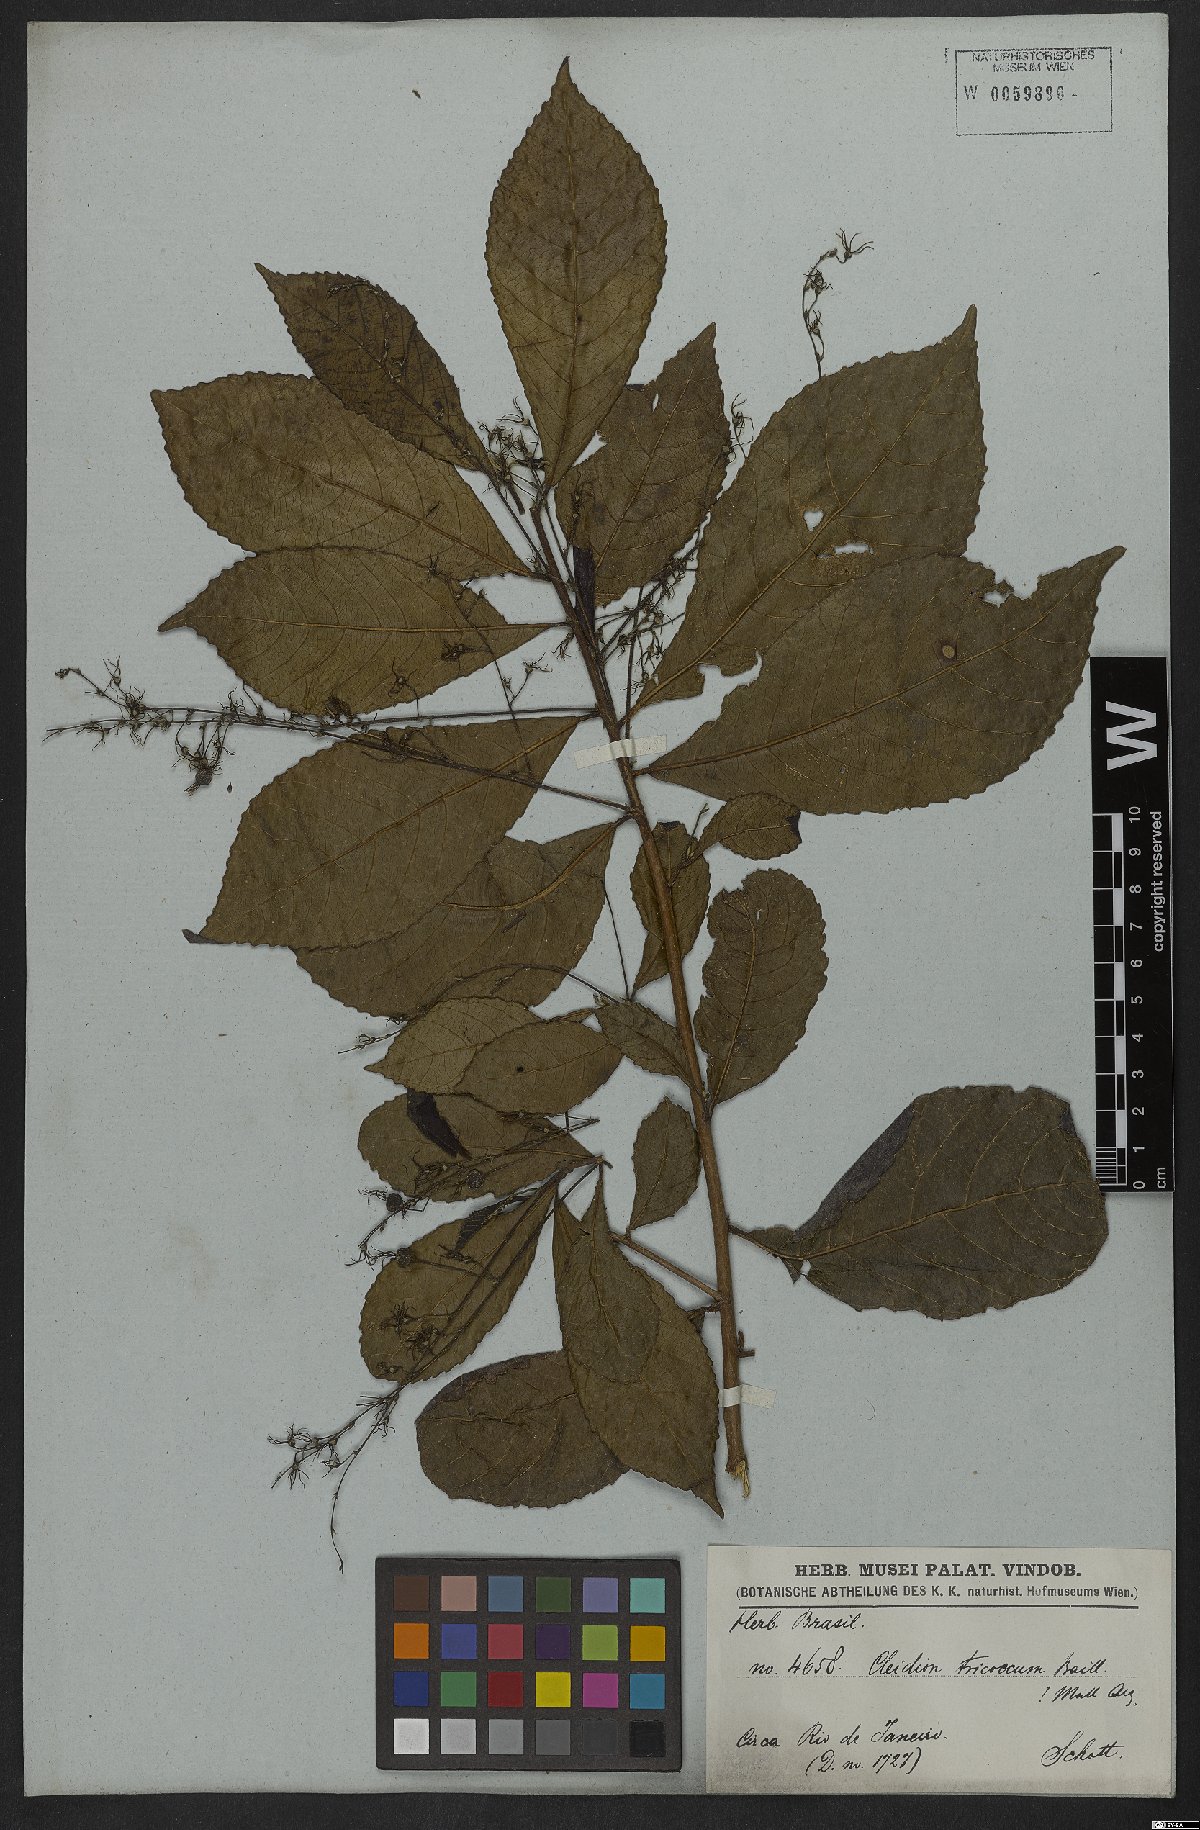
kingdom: Plantae
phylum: Tracheophyta
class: Magnoliopsida
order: Malpighiales
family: Euphorbiaceae
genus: Cleidion
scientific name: Cleidion tricoccum
